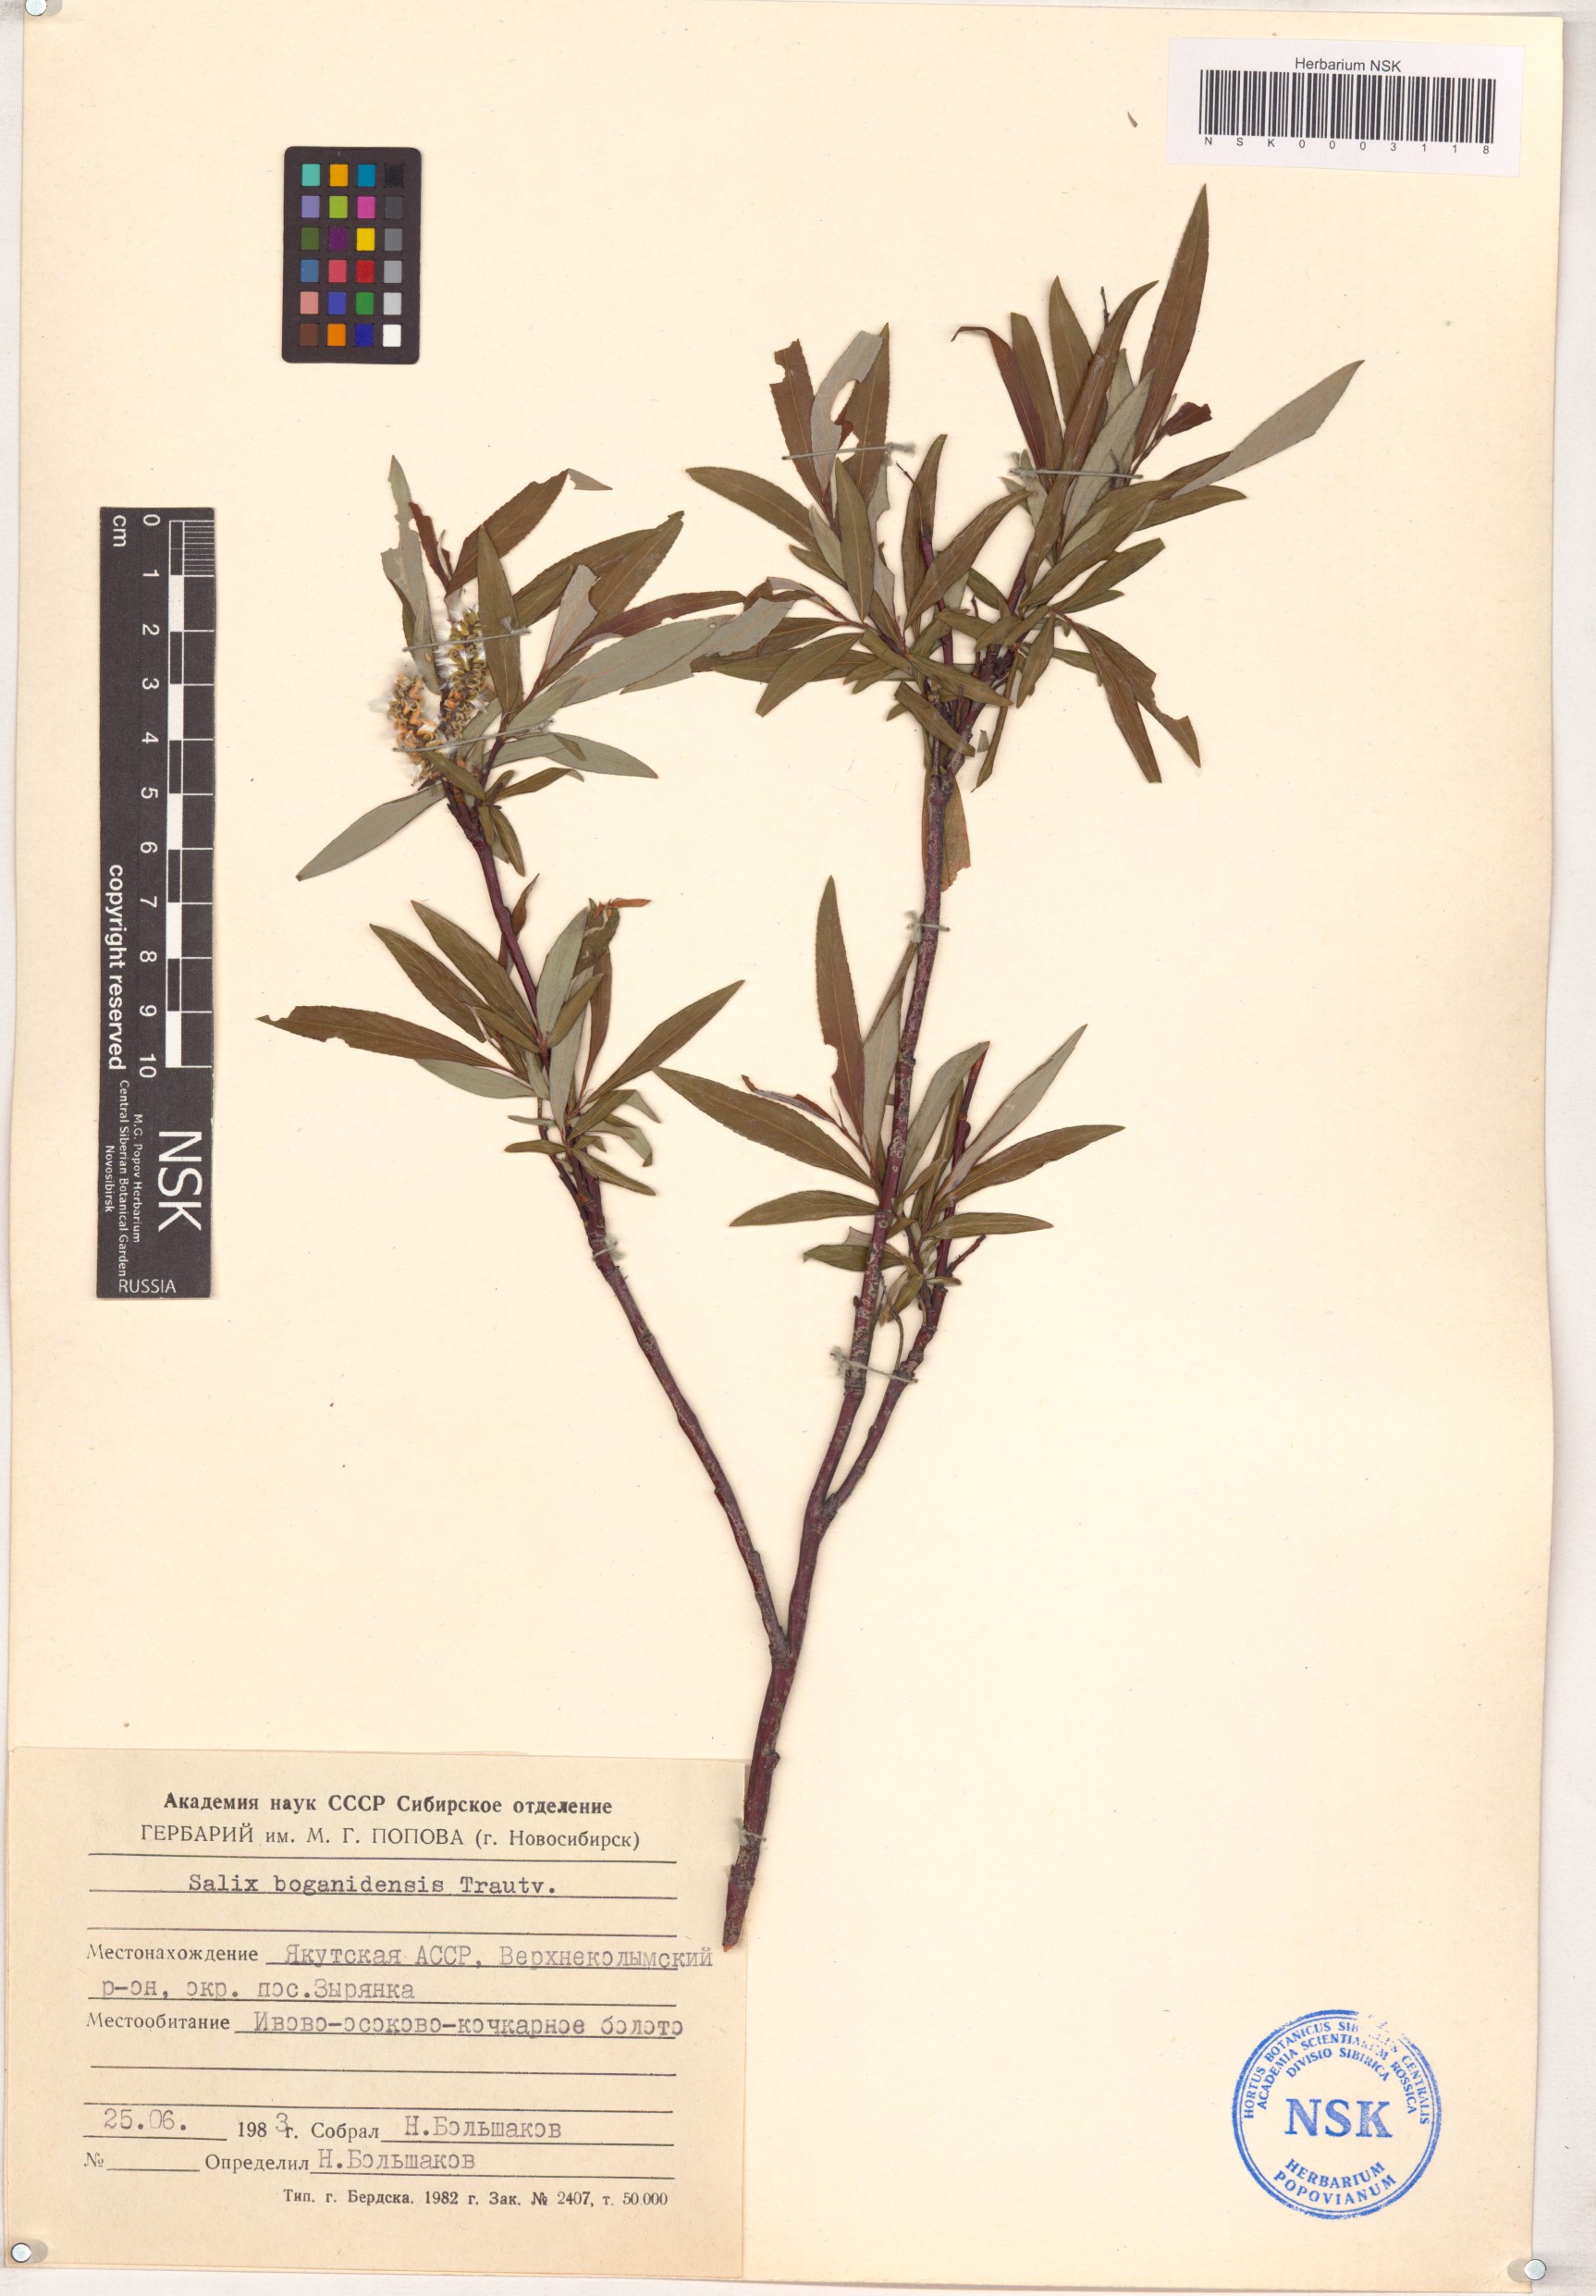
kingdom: Plantae
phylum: Tracheophyta
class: Magnoliopsida
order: Malpighiales
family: Salicaceae
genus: Salix
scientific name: Salix boganidensis
